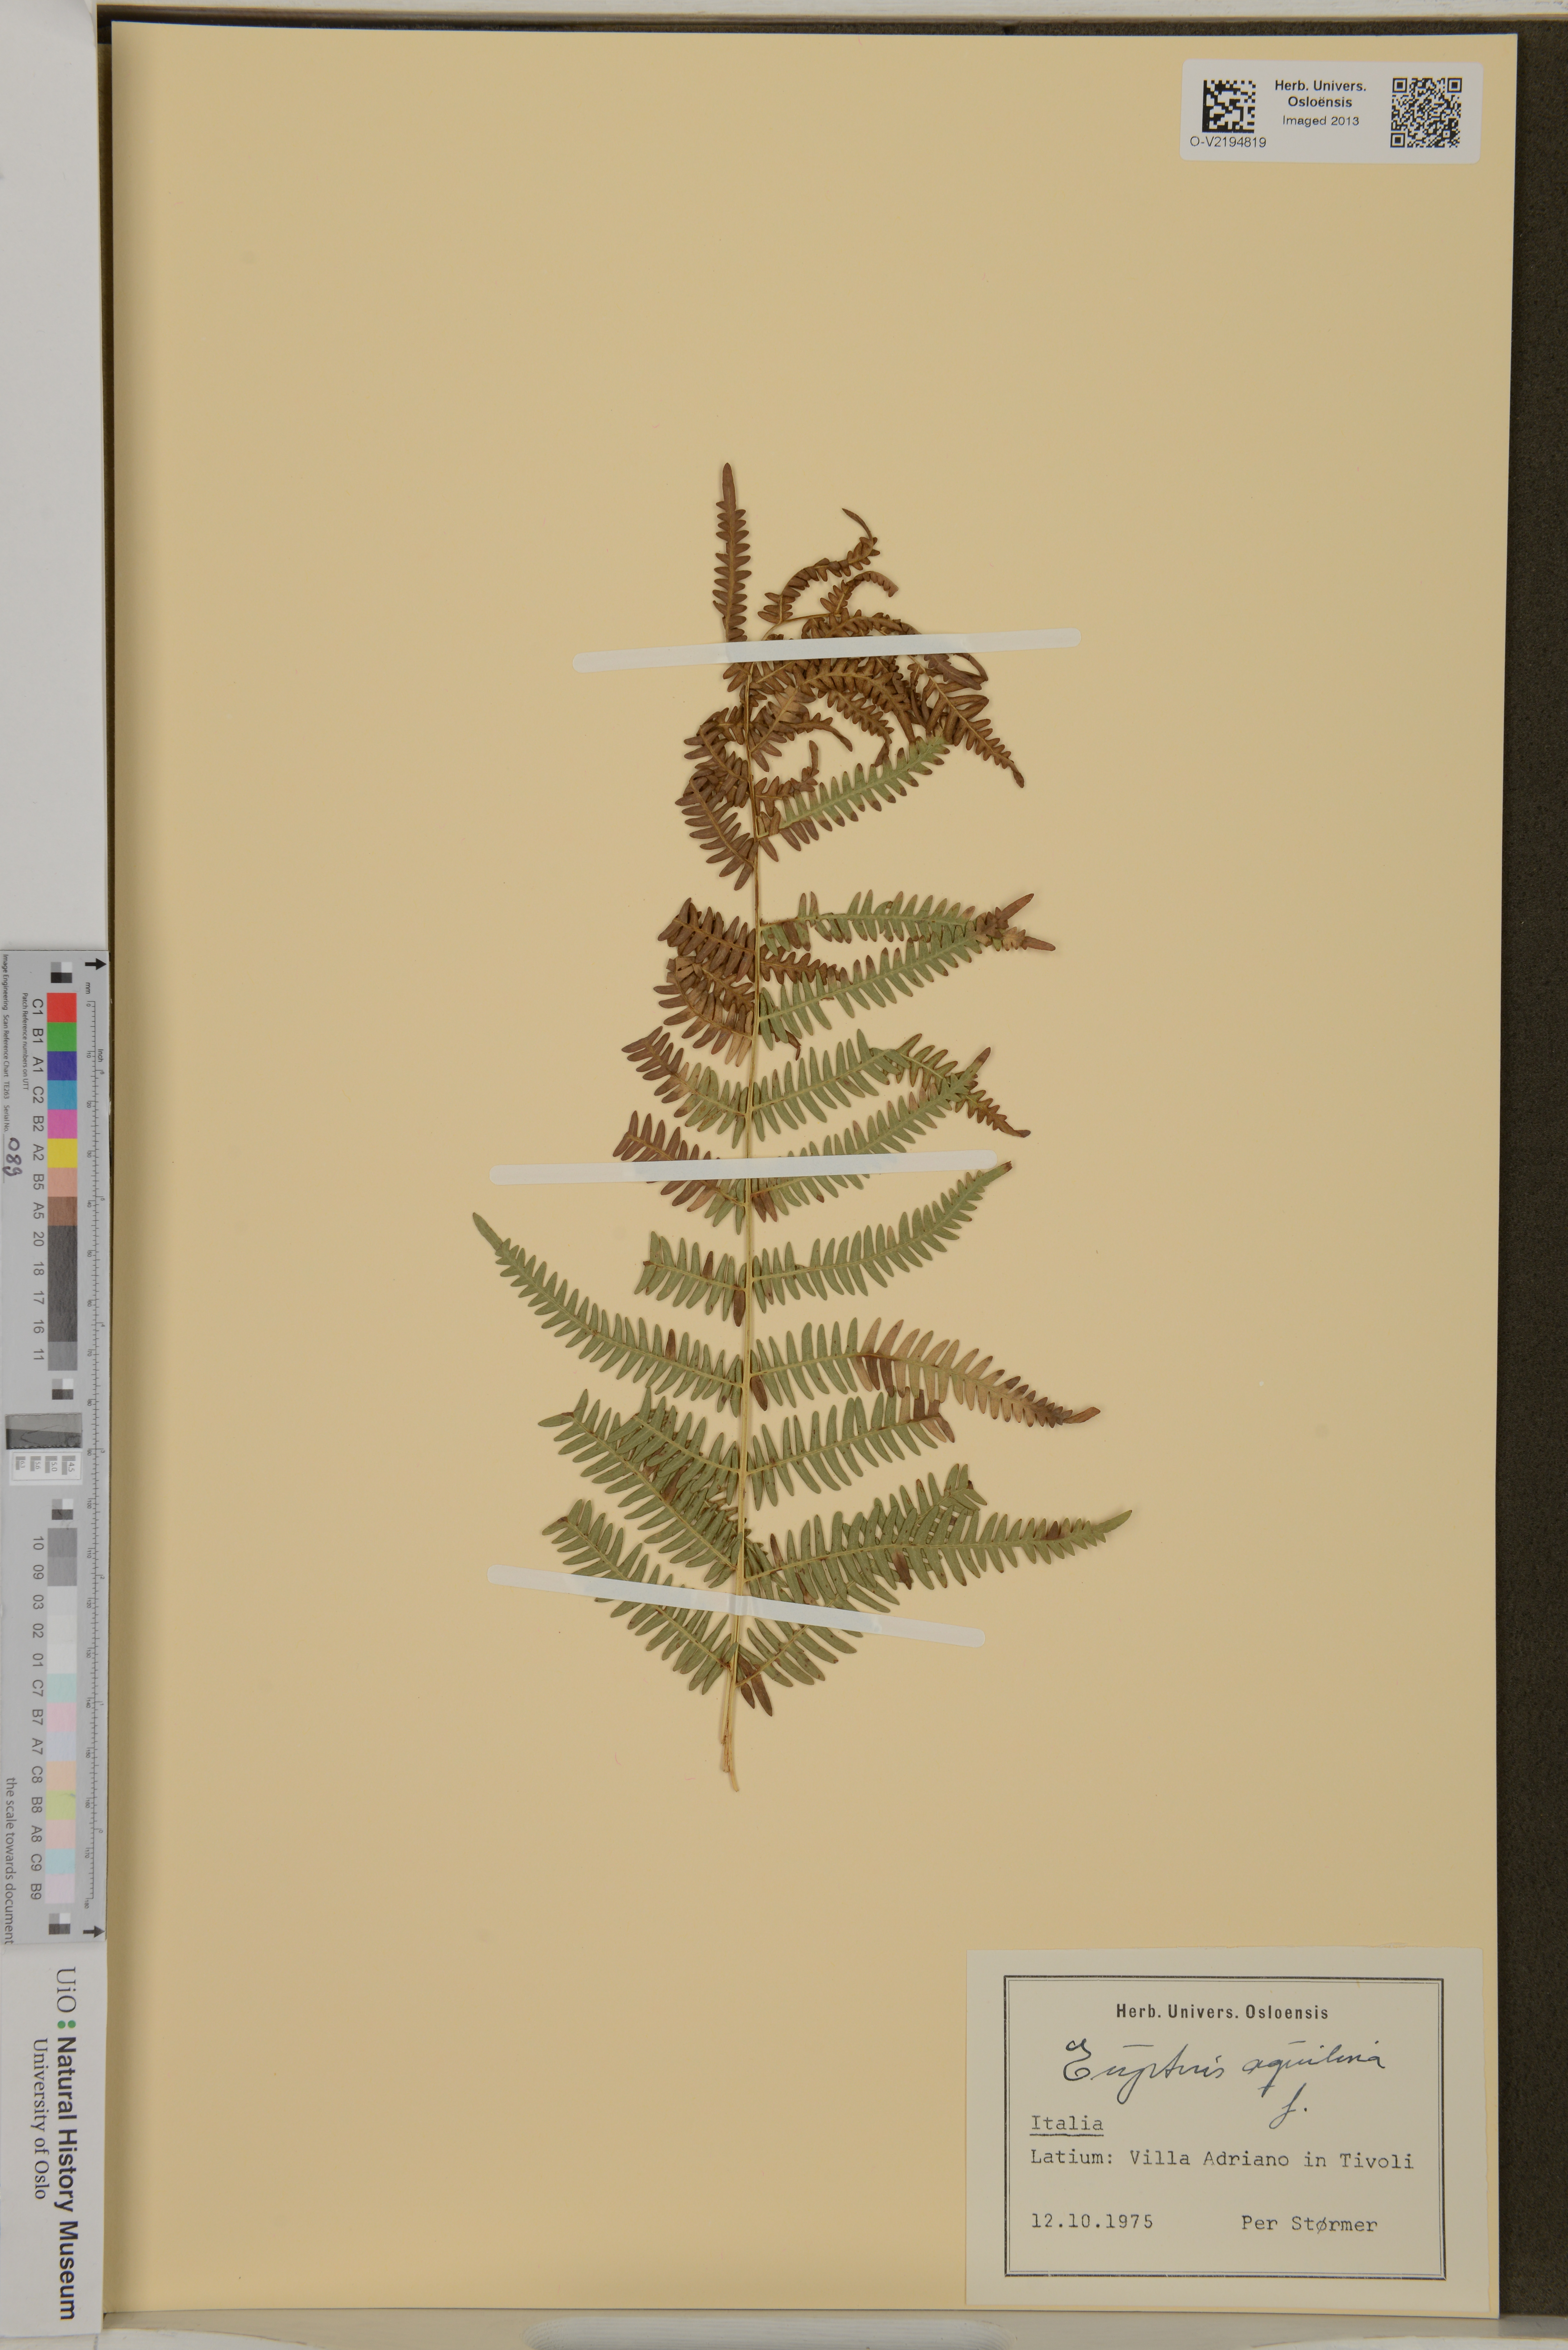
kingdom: Plantae
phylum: Tracheophyta
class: Polypodiopsida
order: Polypodiales
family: Dennstaedtiaceae
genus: Pteridium
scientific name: Pteridium aquilinum
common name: Bracken
